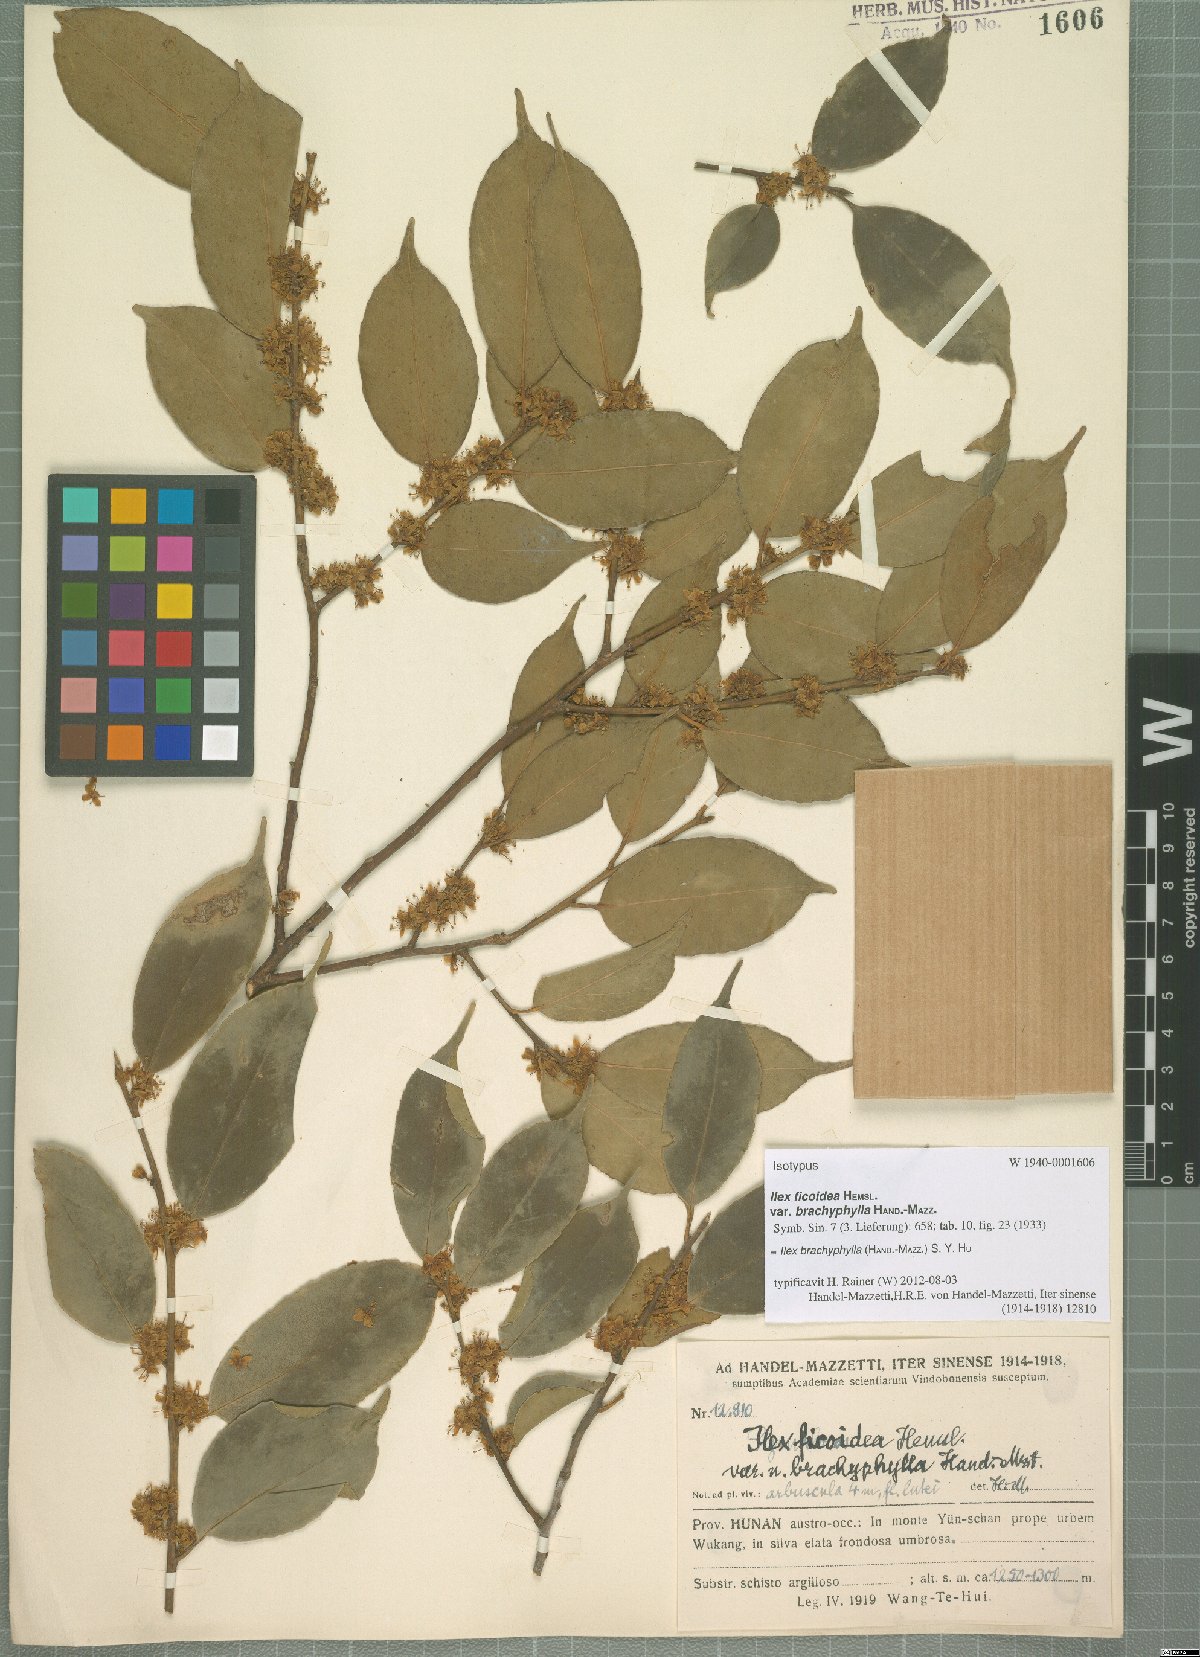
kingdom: Plantae
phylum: Tracheophyta
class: Magnoliopsida
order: Aquifoliales
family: Aquifoliaceae
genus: Ilex
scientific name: Ilex brachyphylla
